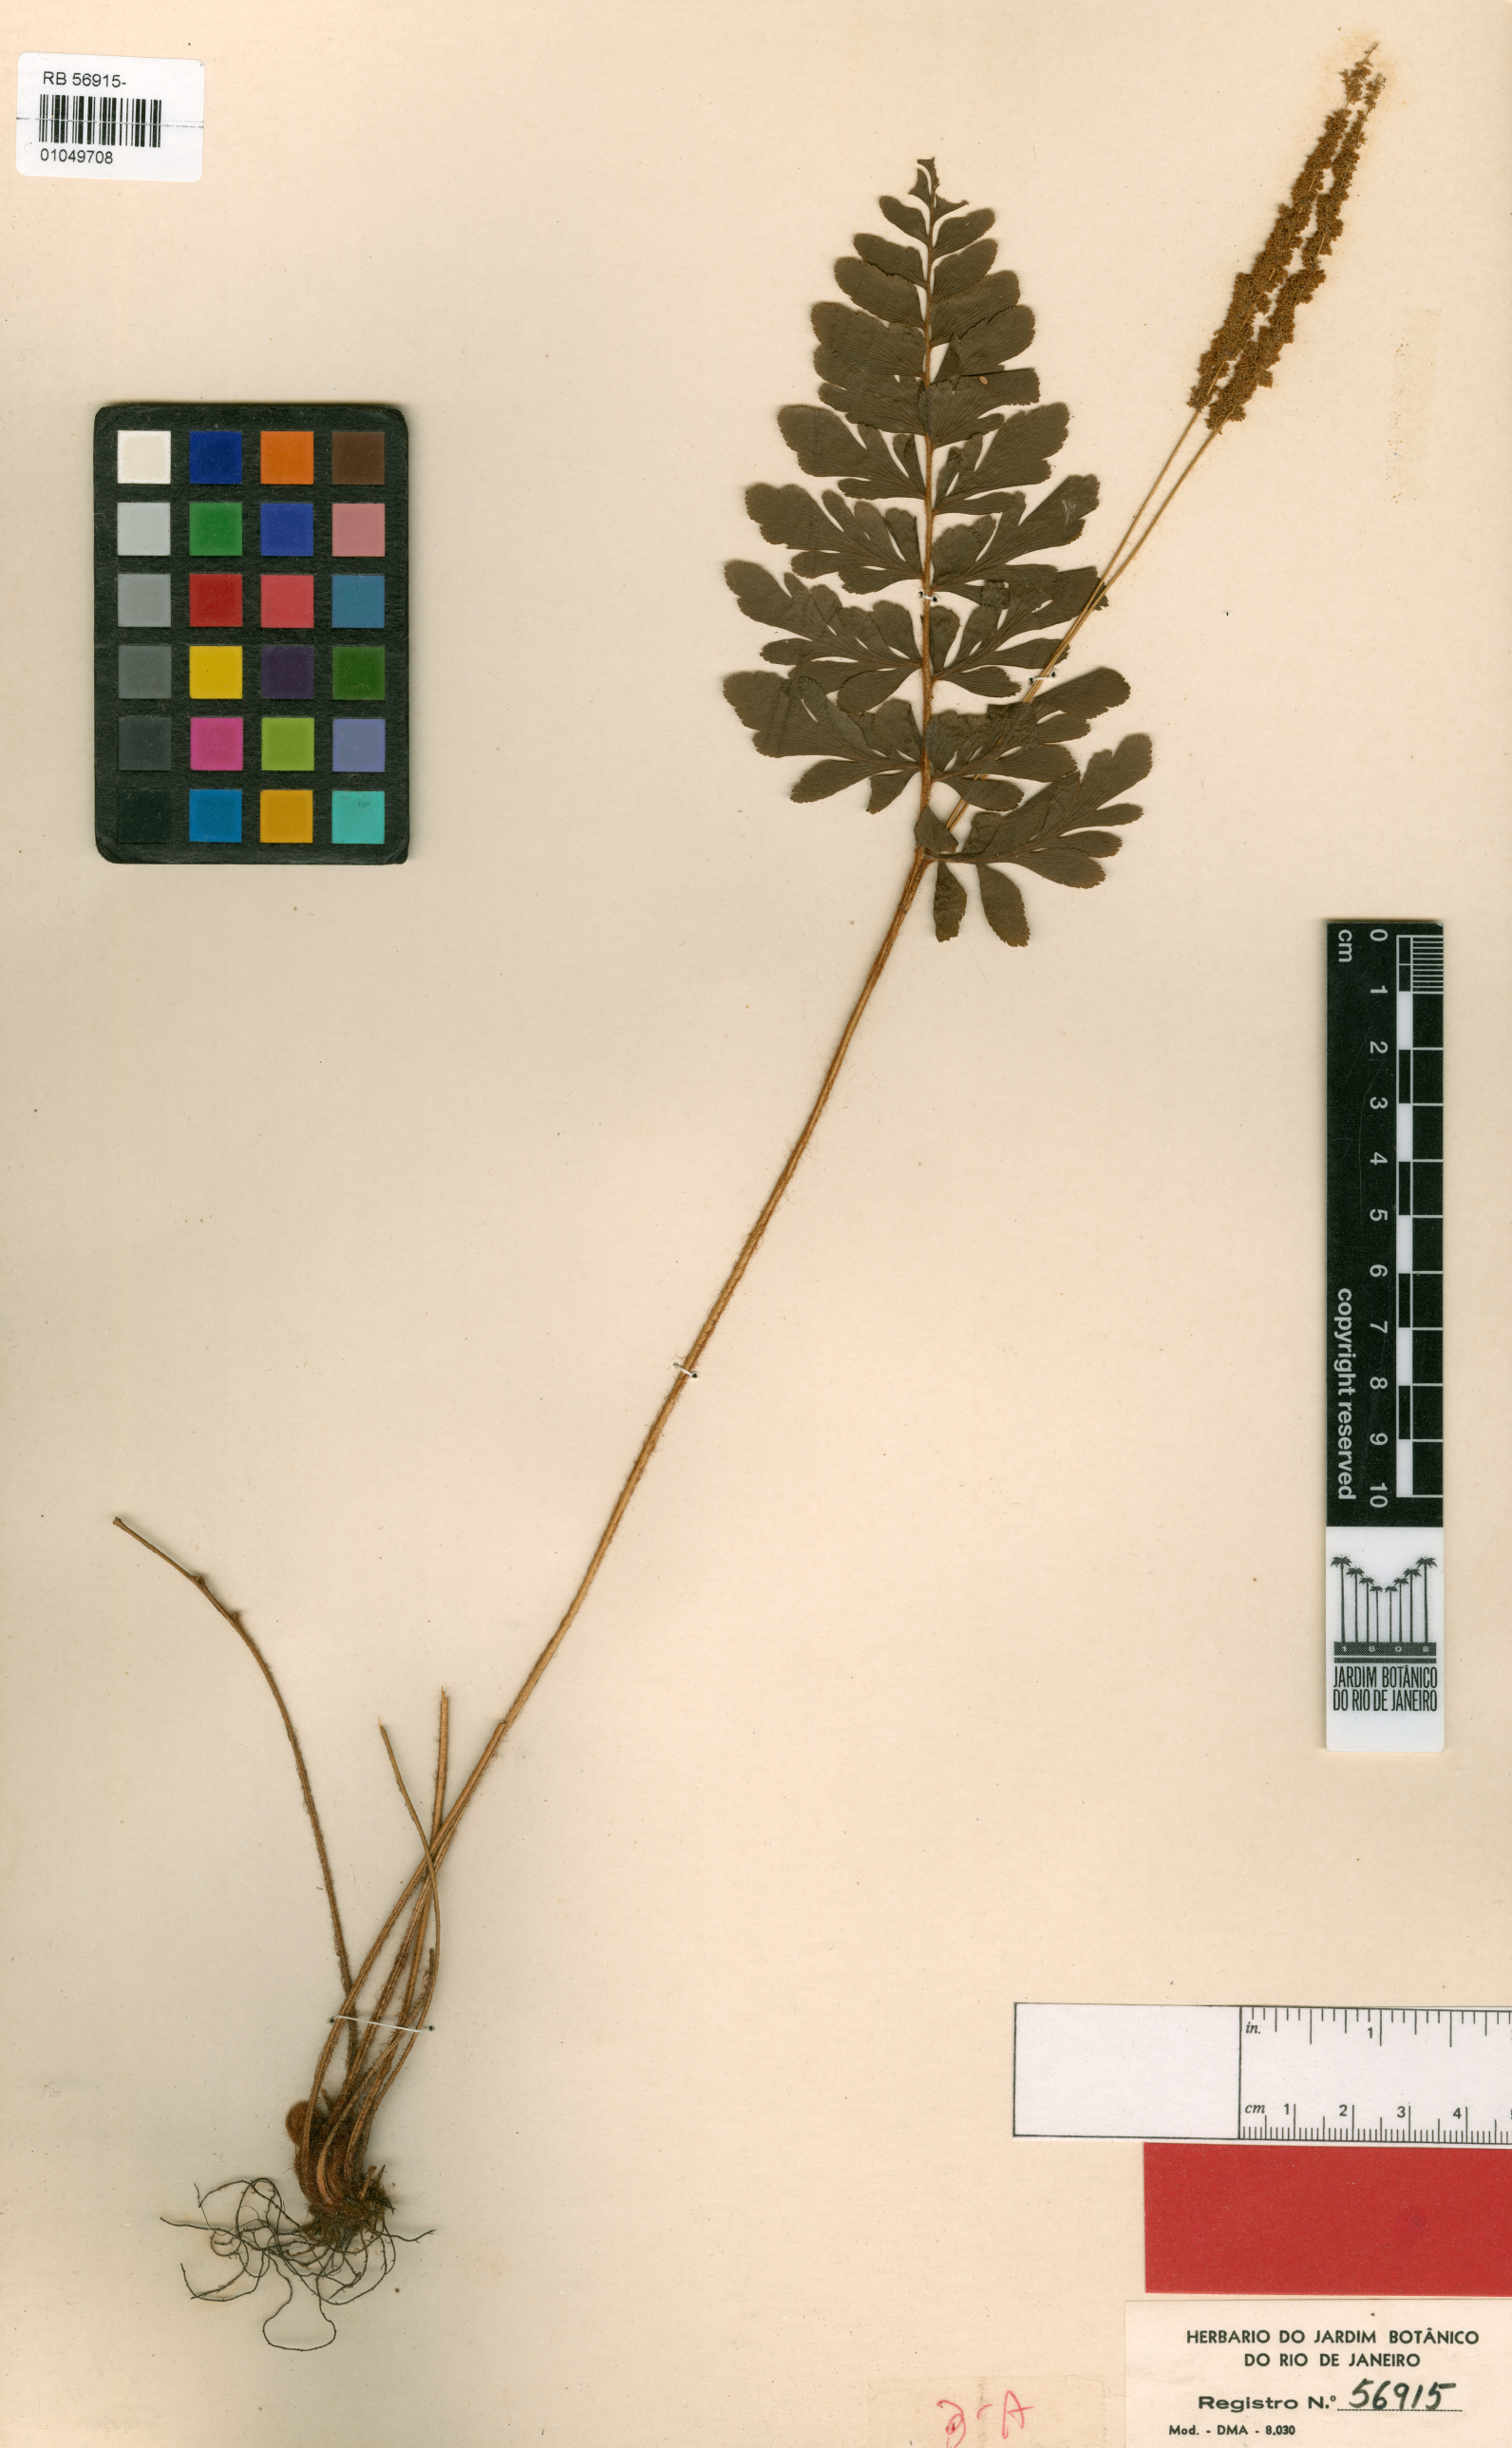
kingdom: Plantae
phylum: Tracheophyta
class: Polypodiopsida
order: Schizaeales
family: Anemiaceae
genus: Anemia
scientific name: Anemia espiritosantensis
